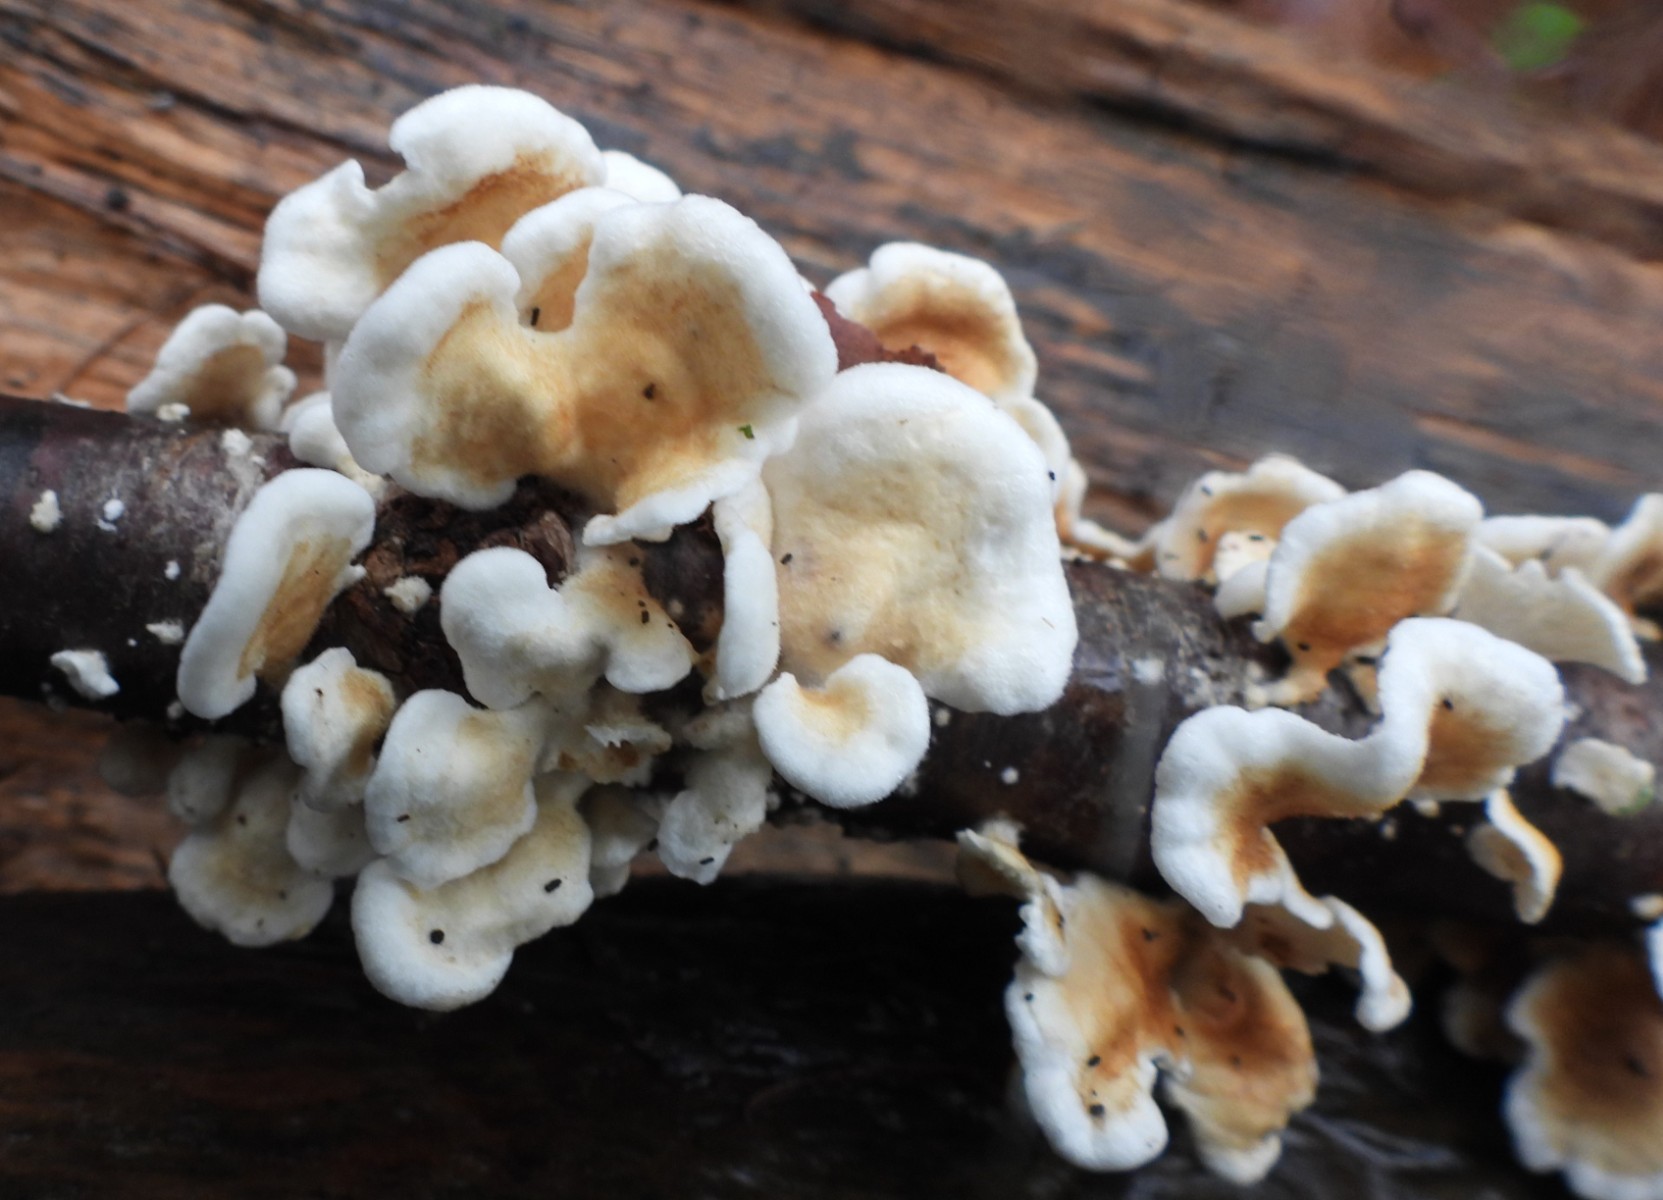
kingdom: Fungi
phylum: Basidiomycota
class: Agaricomycetes
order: Amylocorticiales
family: Amylocorticiaceae
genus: Plicaturopsis
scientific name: Plicaturopsis crispa
